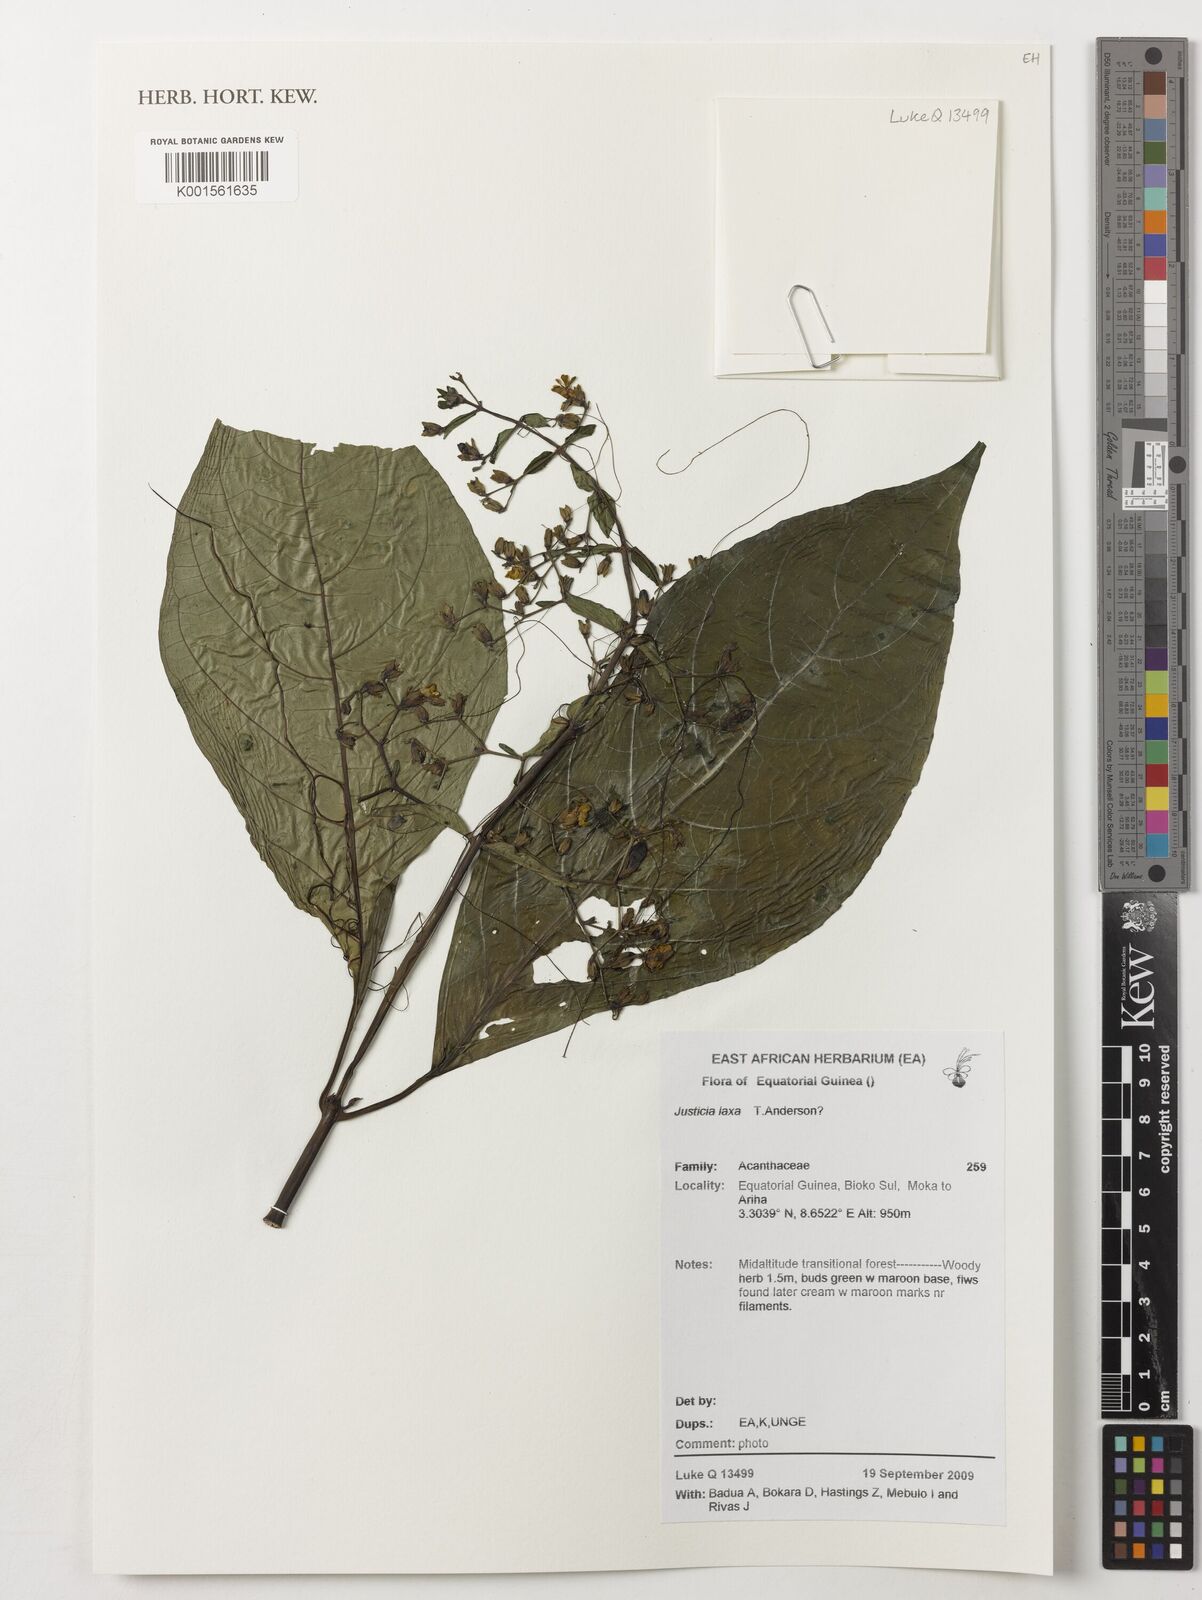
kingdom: Plantae
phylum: Tracheophyta
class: Magnoliopsida
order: Lamiales
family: Acanthaceae
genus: Justicia
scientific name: Justicia laxa
